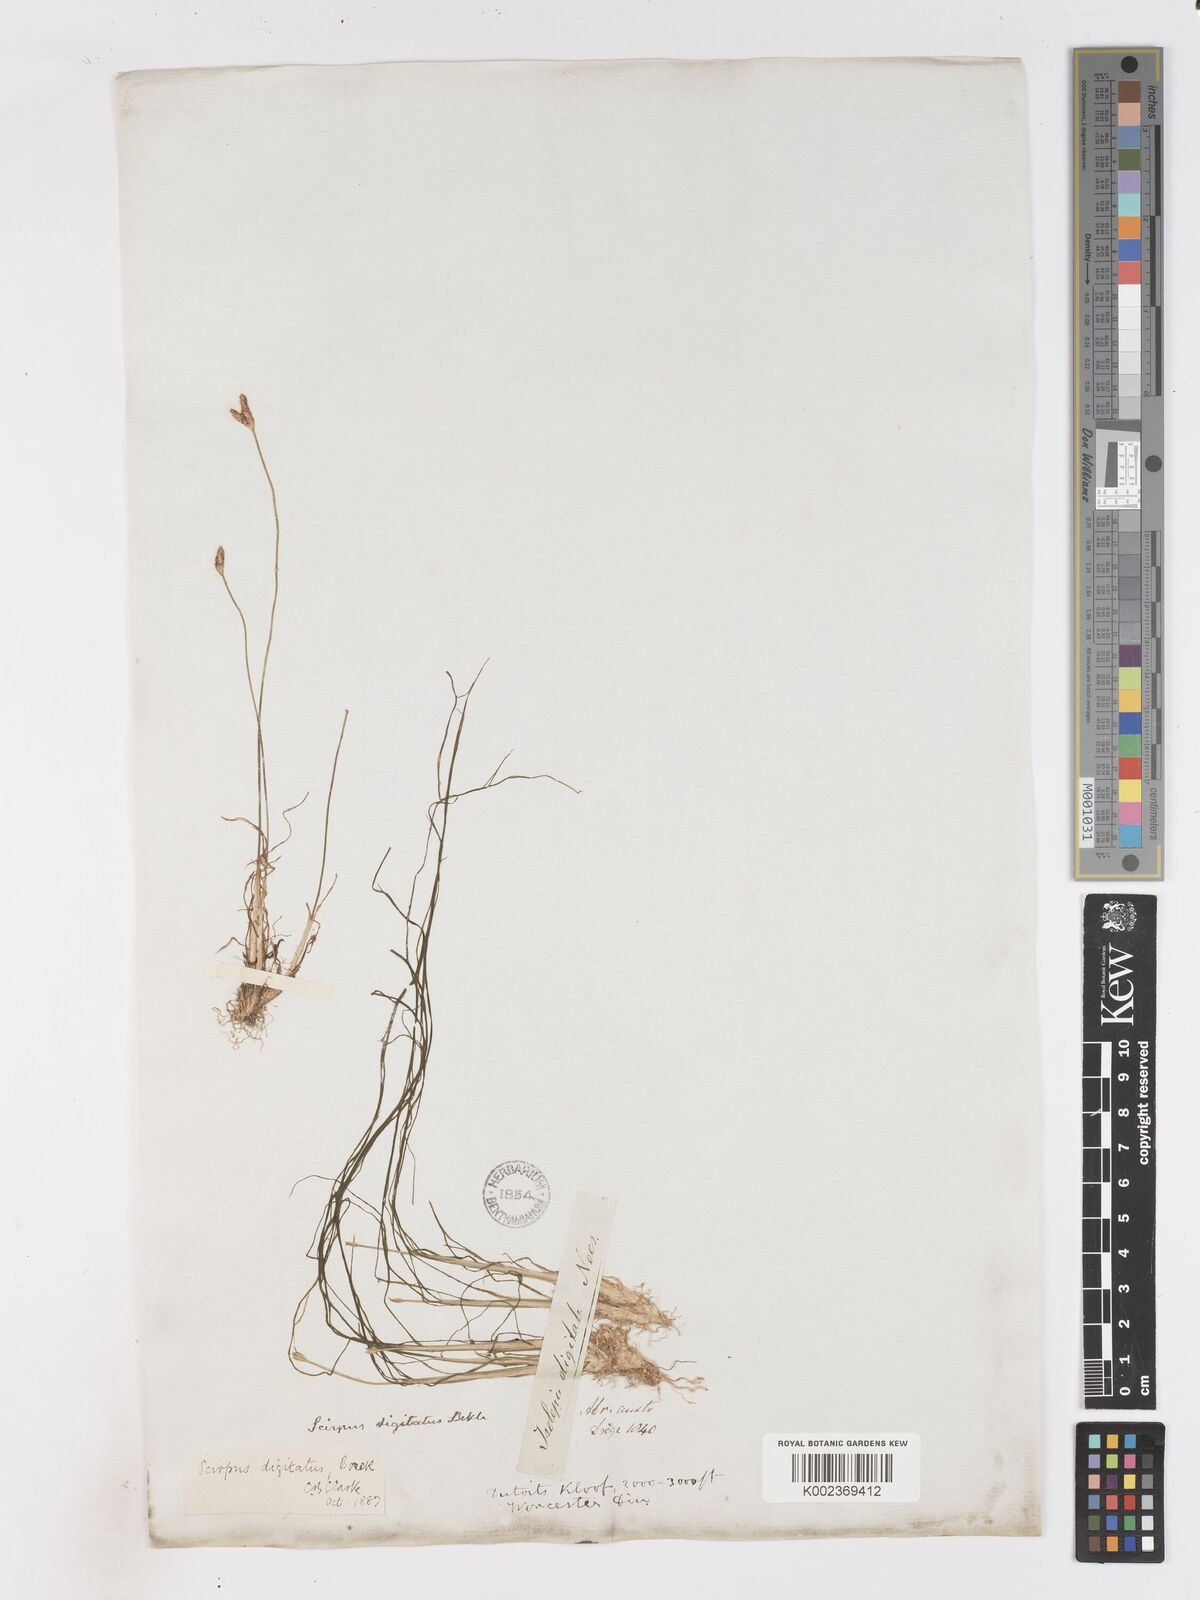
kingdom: Plantae
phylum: Tracheophyta
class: Liliopsida
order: Poales
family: Cyperaceae
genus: Isolepis
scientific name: Isolepis digitata
